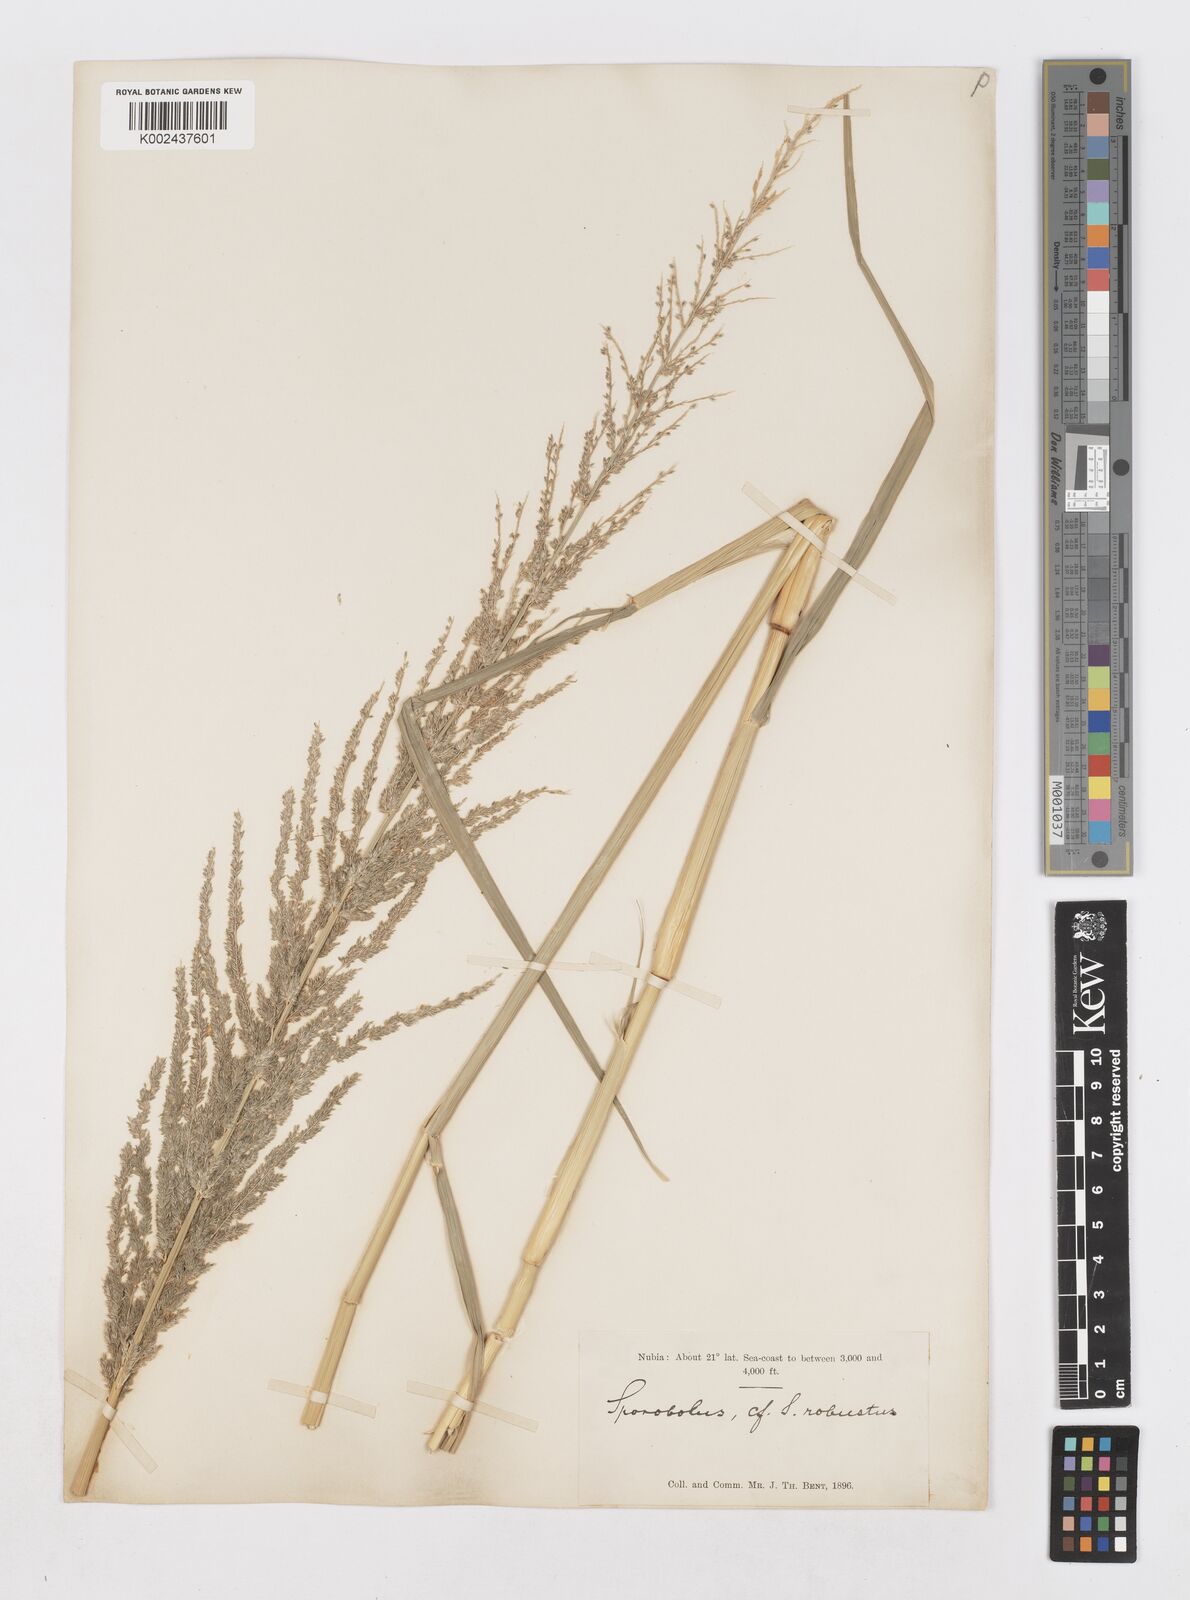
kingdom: Plantae
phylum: Tracheophyta
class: Liliopsida
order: Poales
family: Poaceae
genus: Sporobolus
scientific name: Sporobolus consimilis
